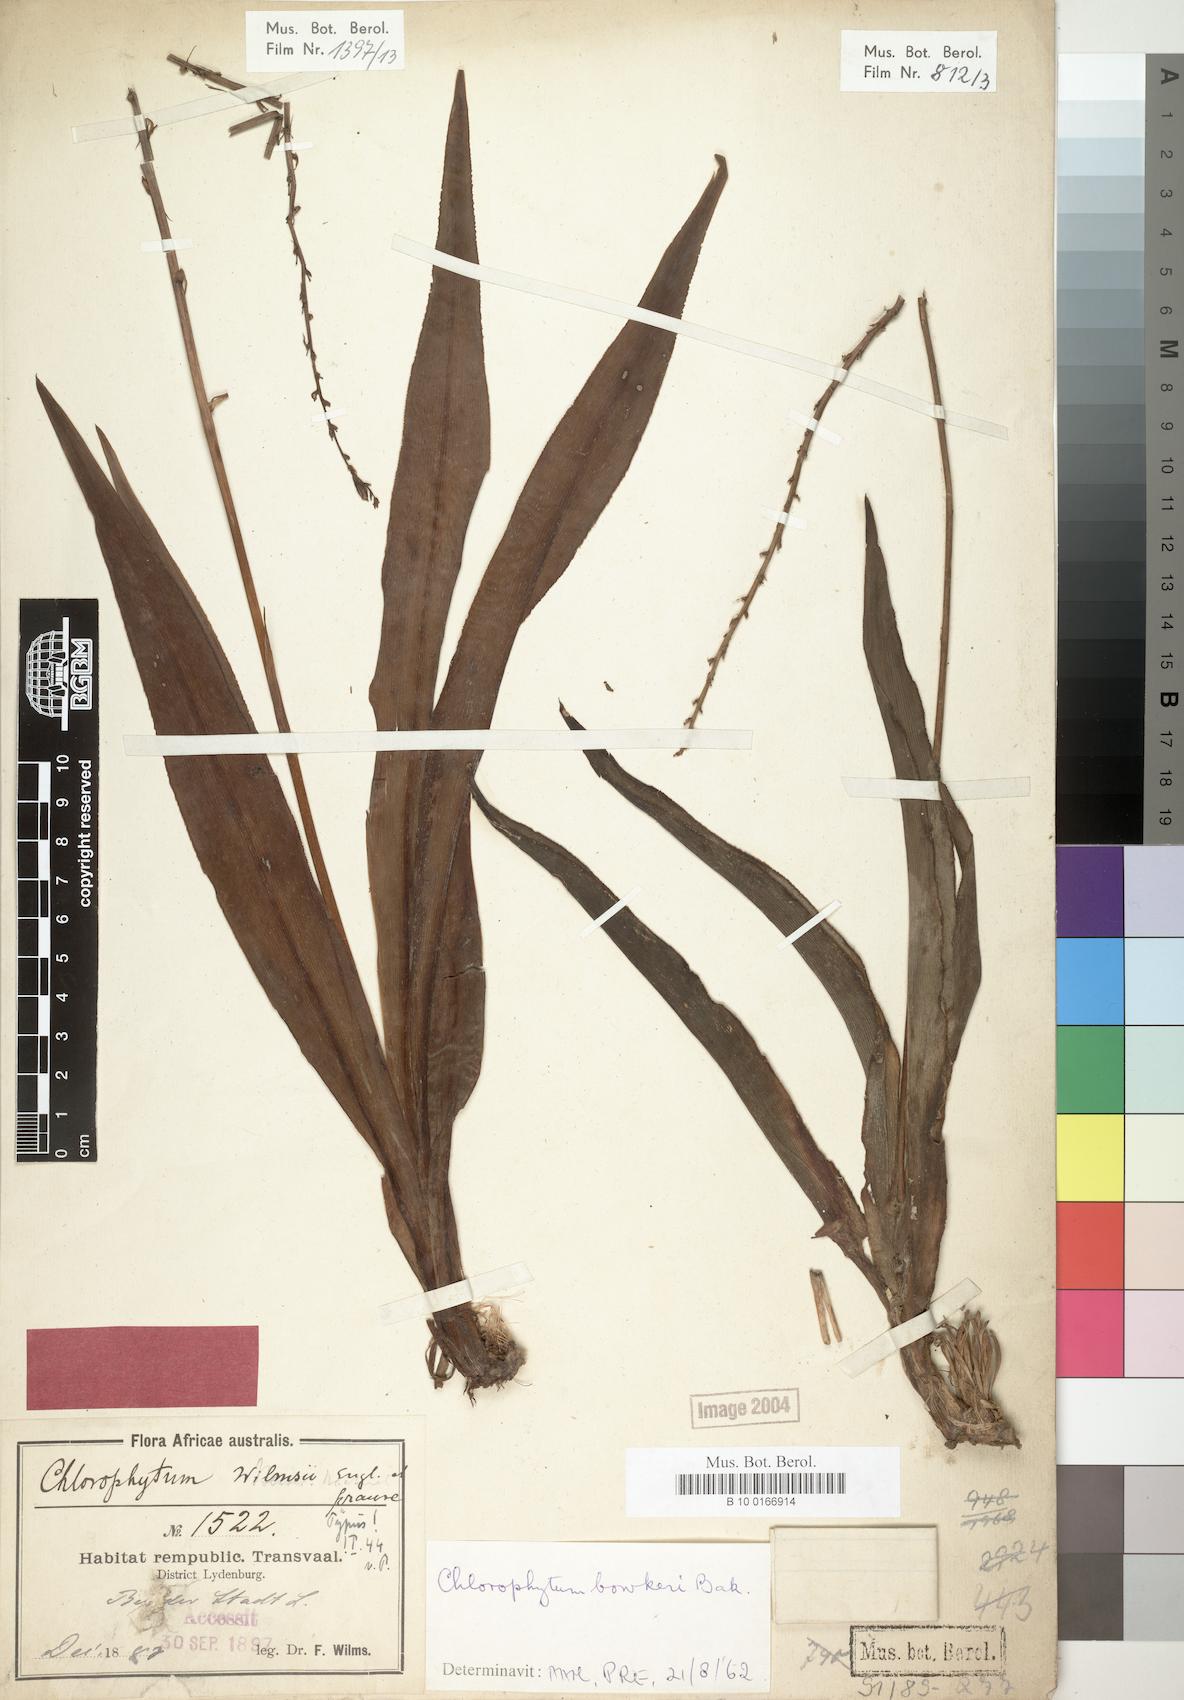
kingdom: Plantae
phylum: Tracheophyta
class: Liliopsida
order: Asparagales
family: Asparagaceae
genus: Chlorophytum
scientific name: Chlorophytum bowkeri
